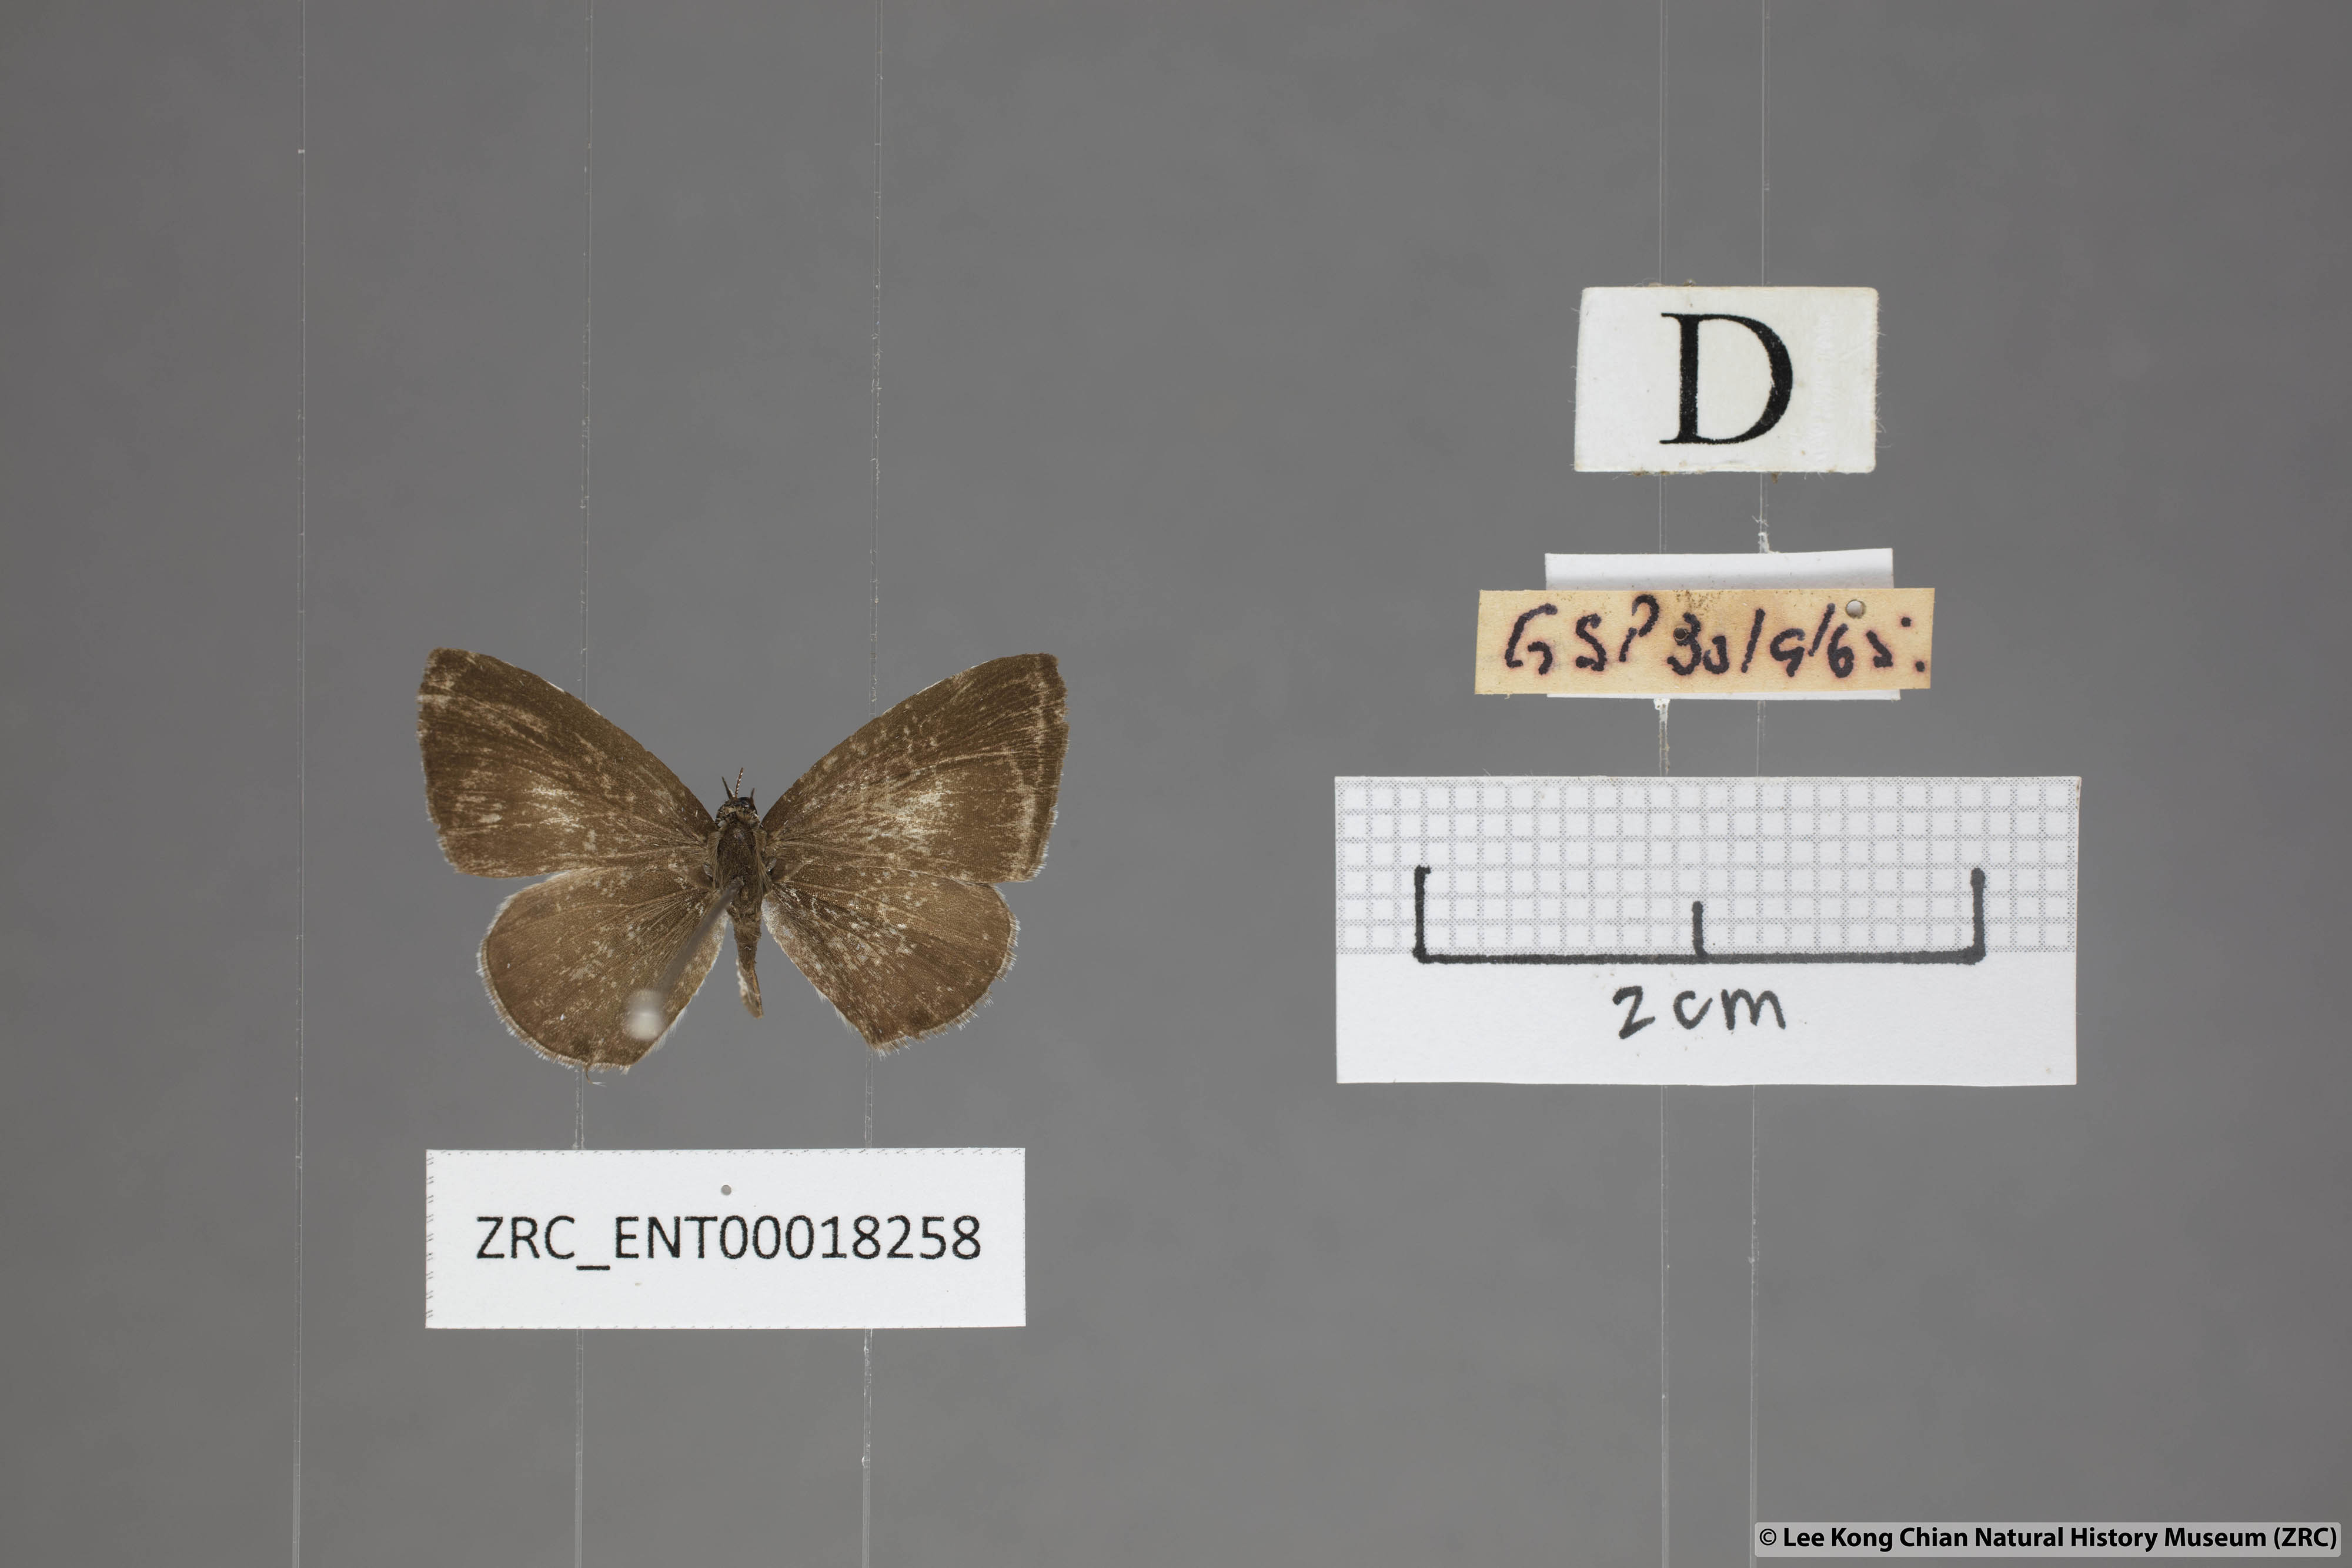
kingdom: Animalia
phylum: Arthropoda
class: Insecta
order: Lepidoptera
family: Lycaenidae
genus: Megisba
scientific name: Megisba malaya
